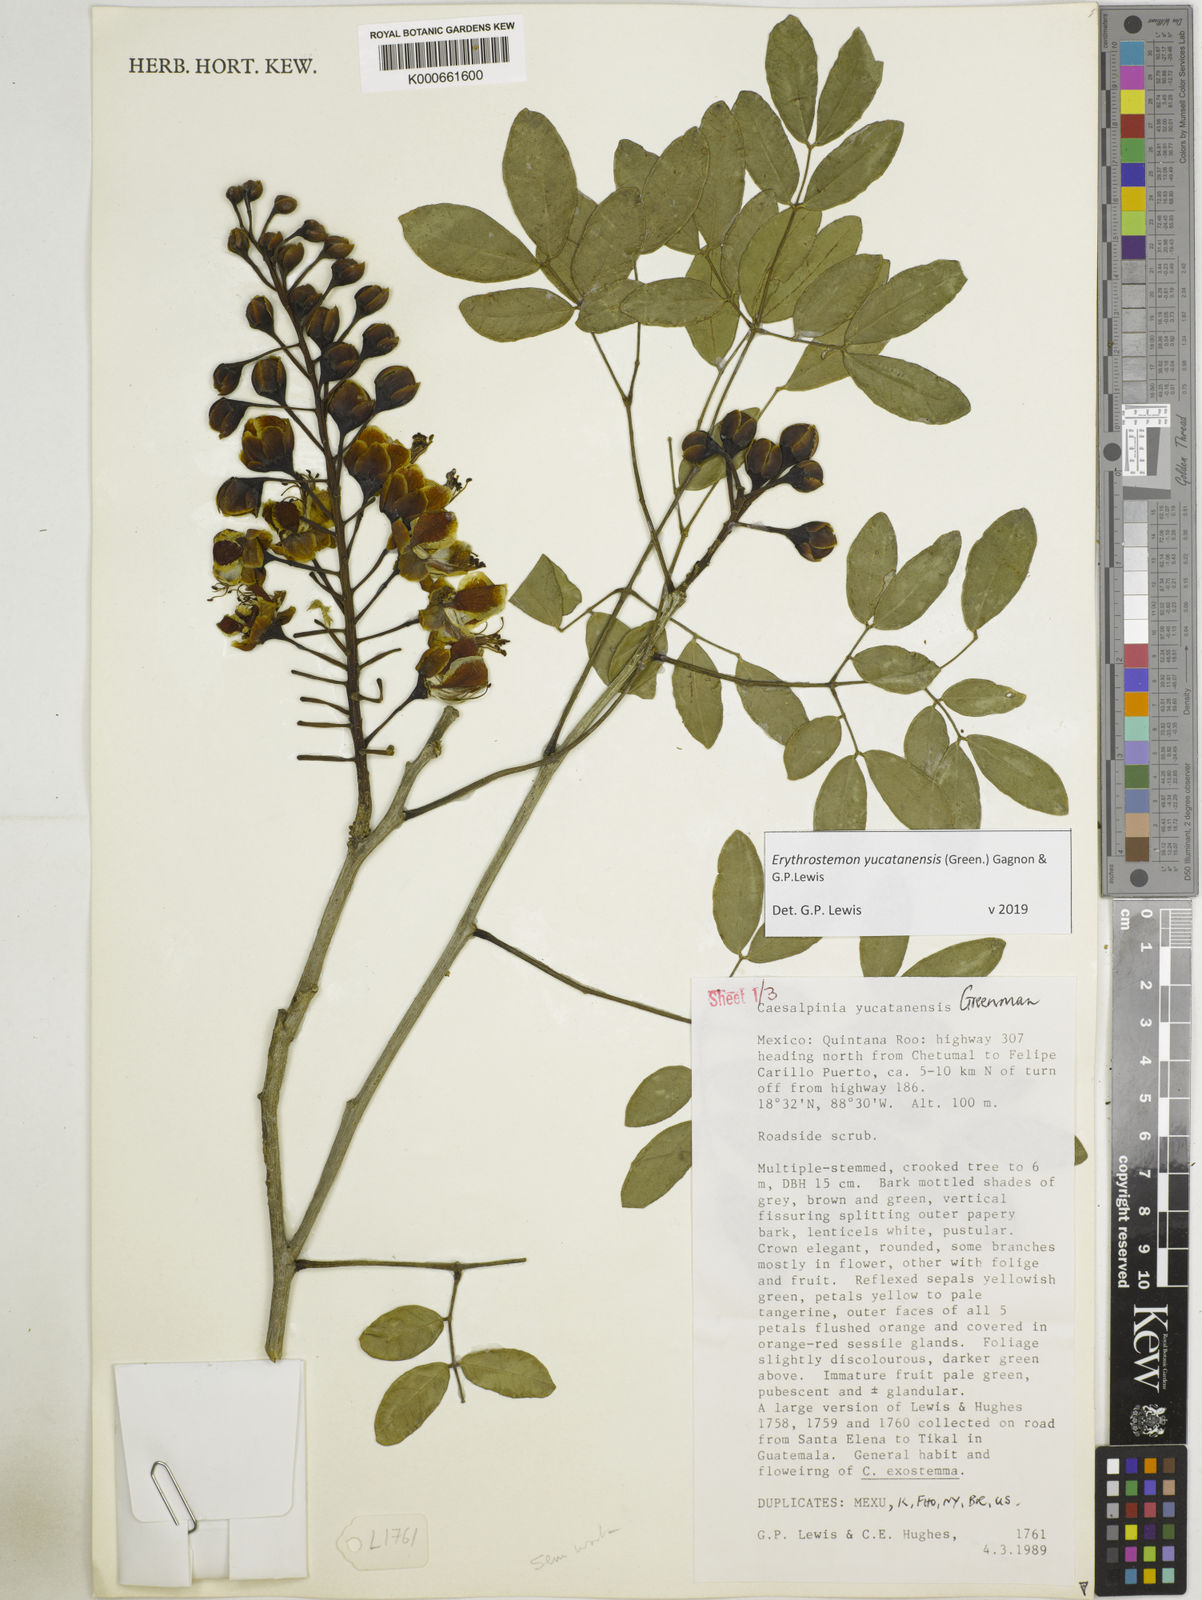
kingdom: Plantae
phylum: Tracheophyta
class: Magnoliopsida
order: Fabales
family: Fabaceae
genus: Caesalpinia
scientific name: Caesalpinia
